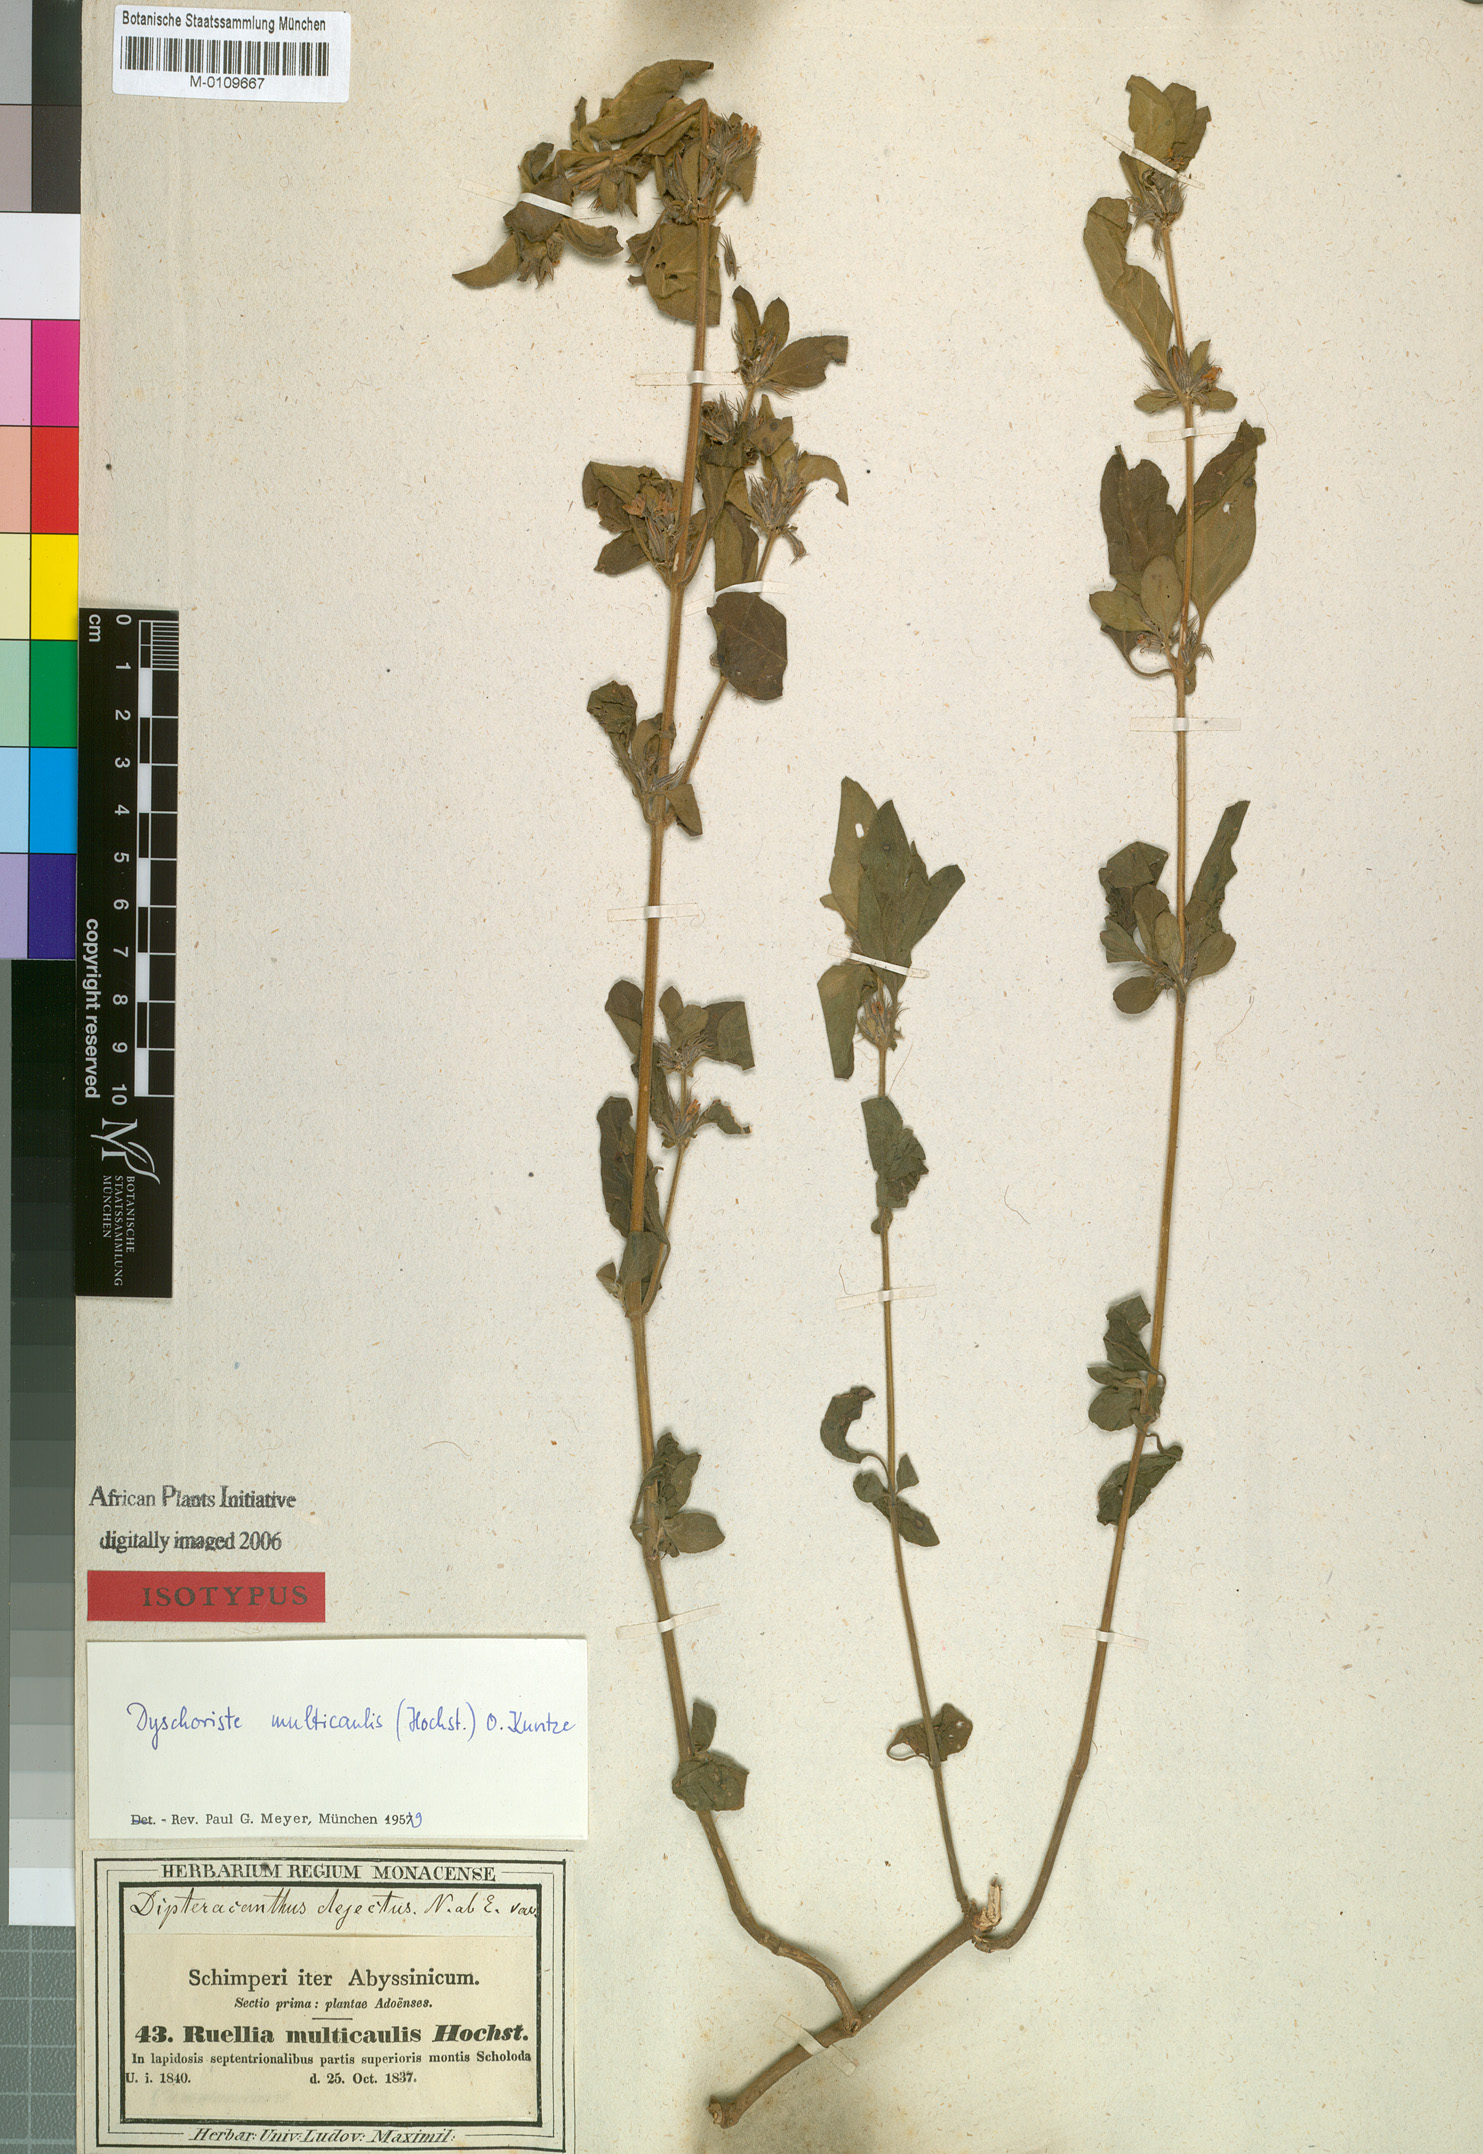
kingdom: Plantae
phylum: Tracheophyta
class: Magnoliopsida
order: Lamiales
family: Acanthaceae
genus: Dyschoriste
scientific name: Dyschoriste multicaulis
